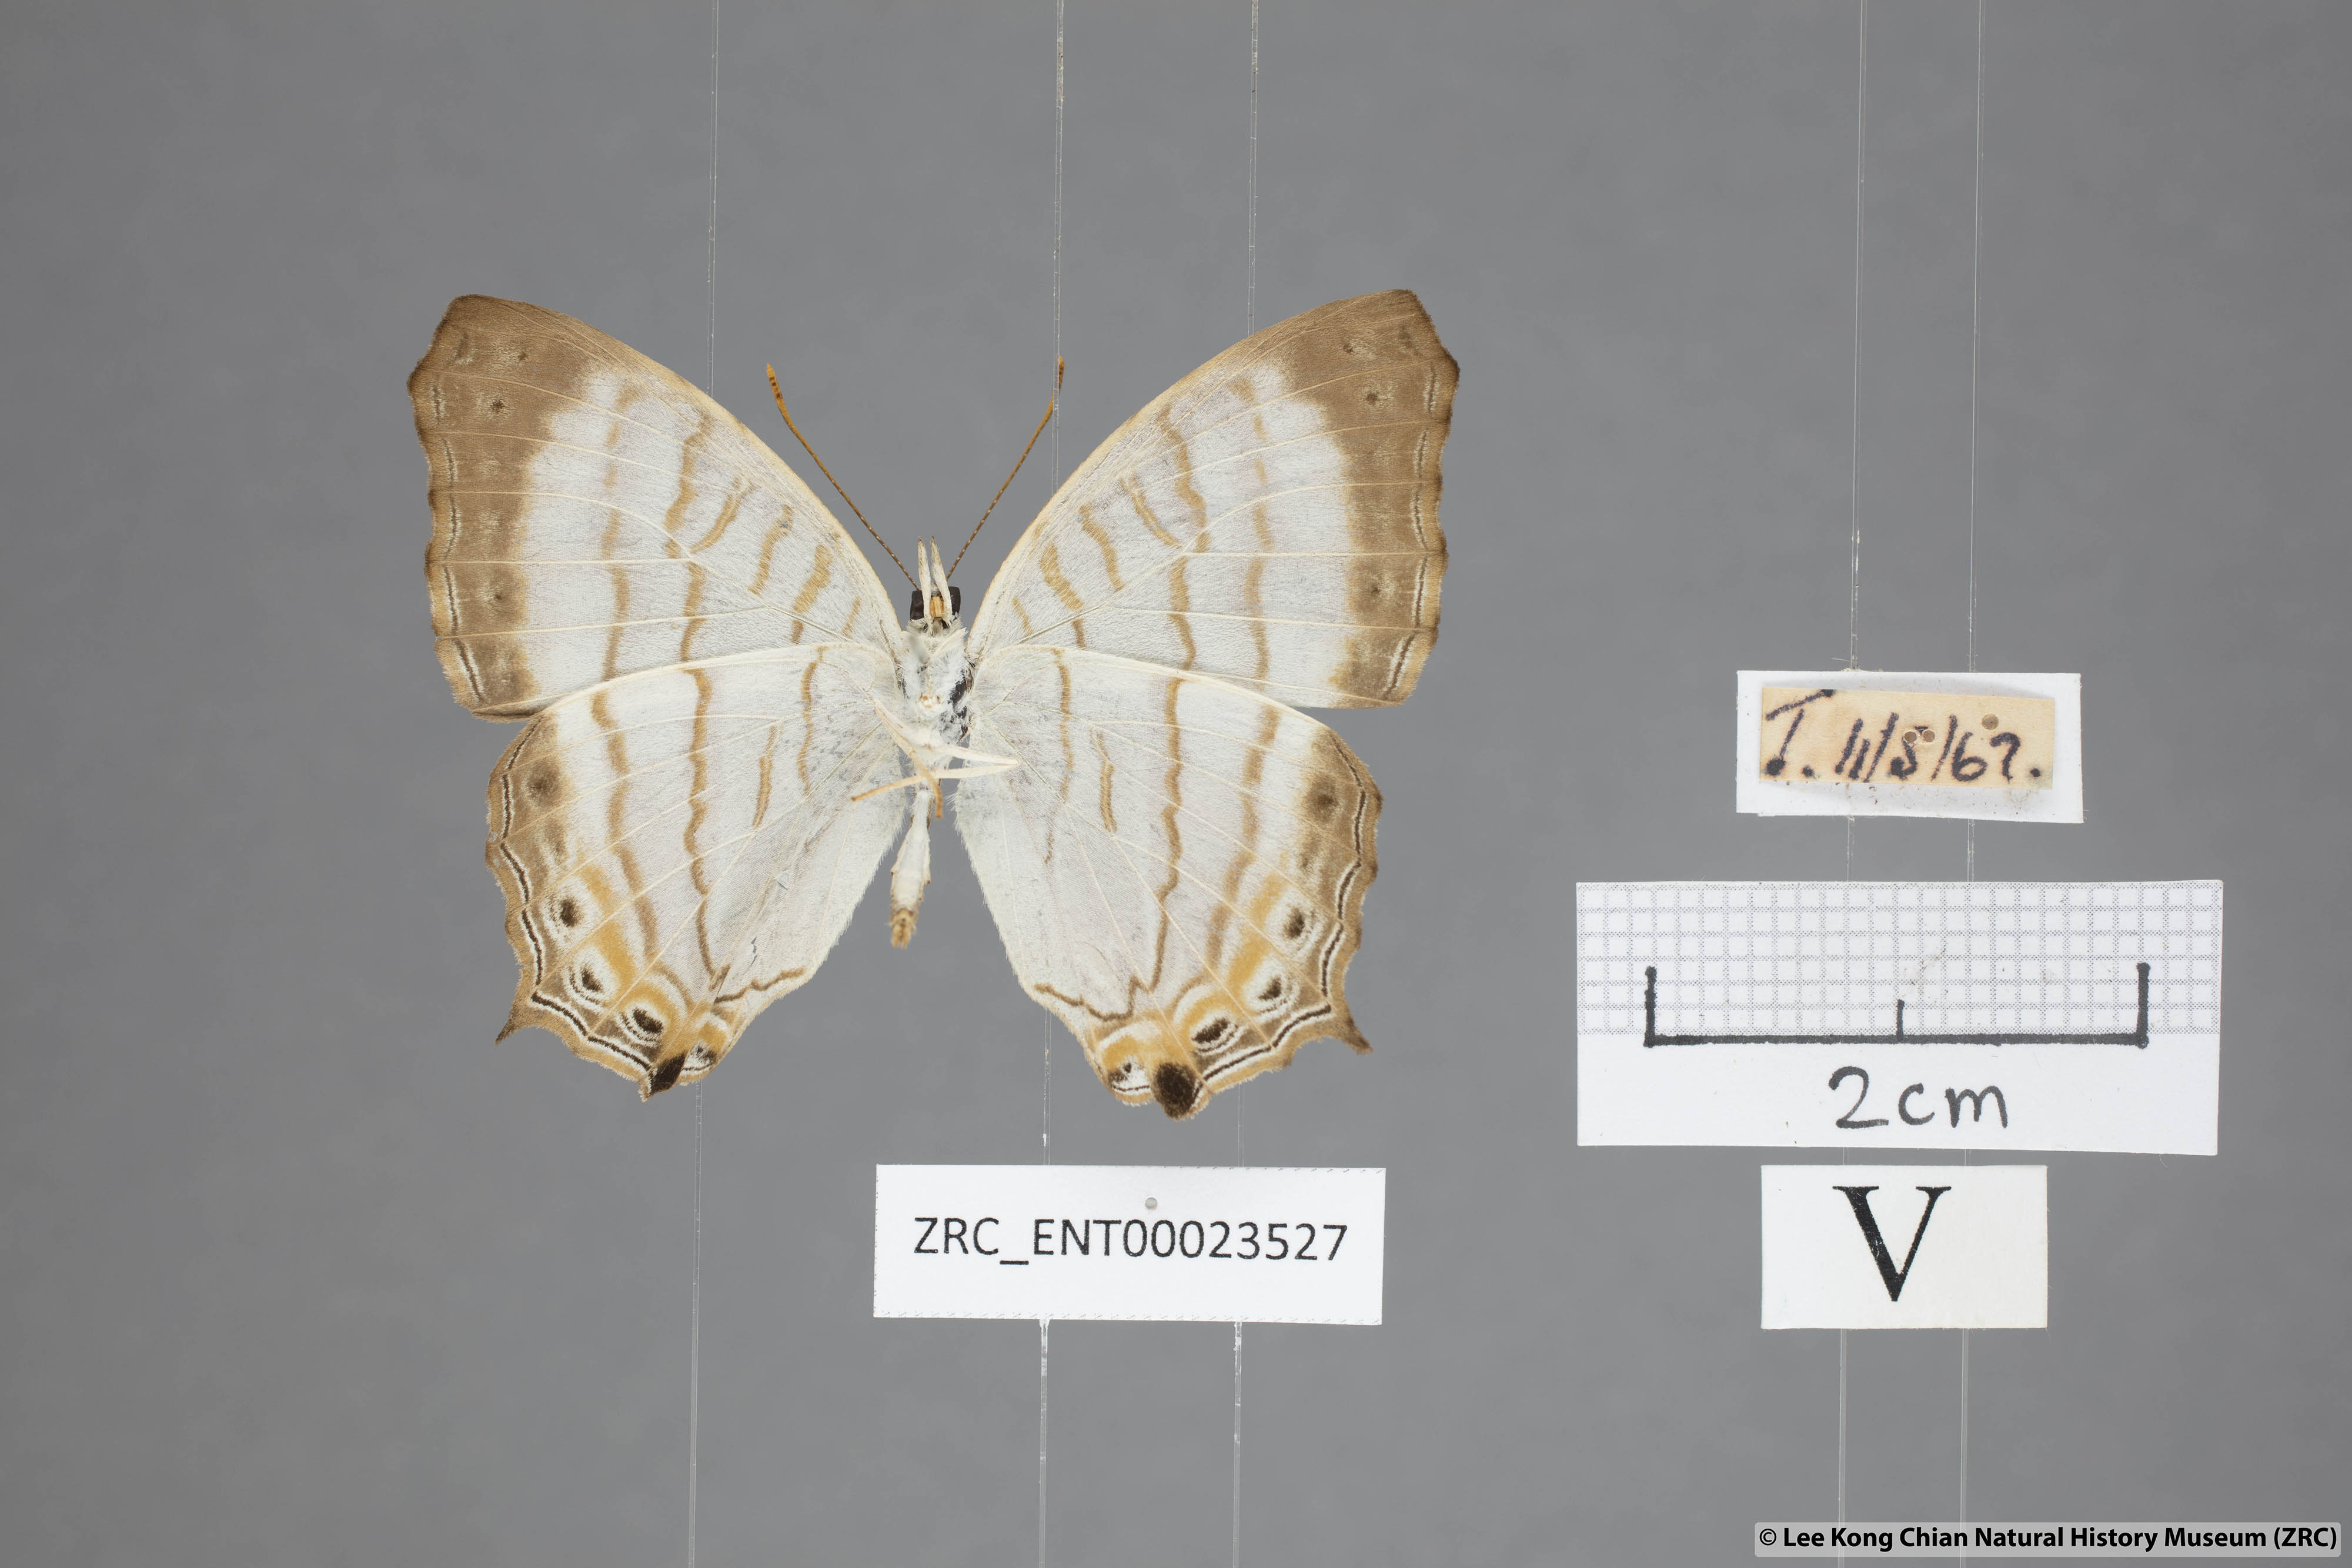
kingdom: Animalia
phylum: Arthropoda
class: Insecta
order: Lepidoptera
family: Nymphalidae
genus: Cyrestis
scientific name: Cyrestis themire
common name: Little mapwing
